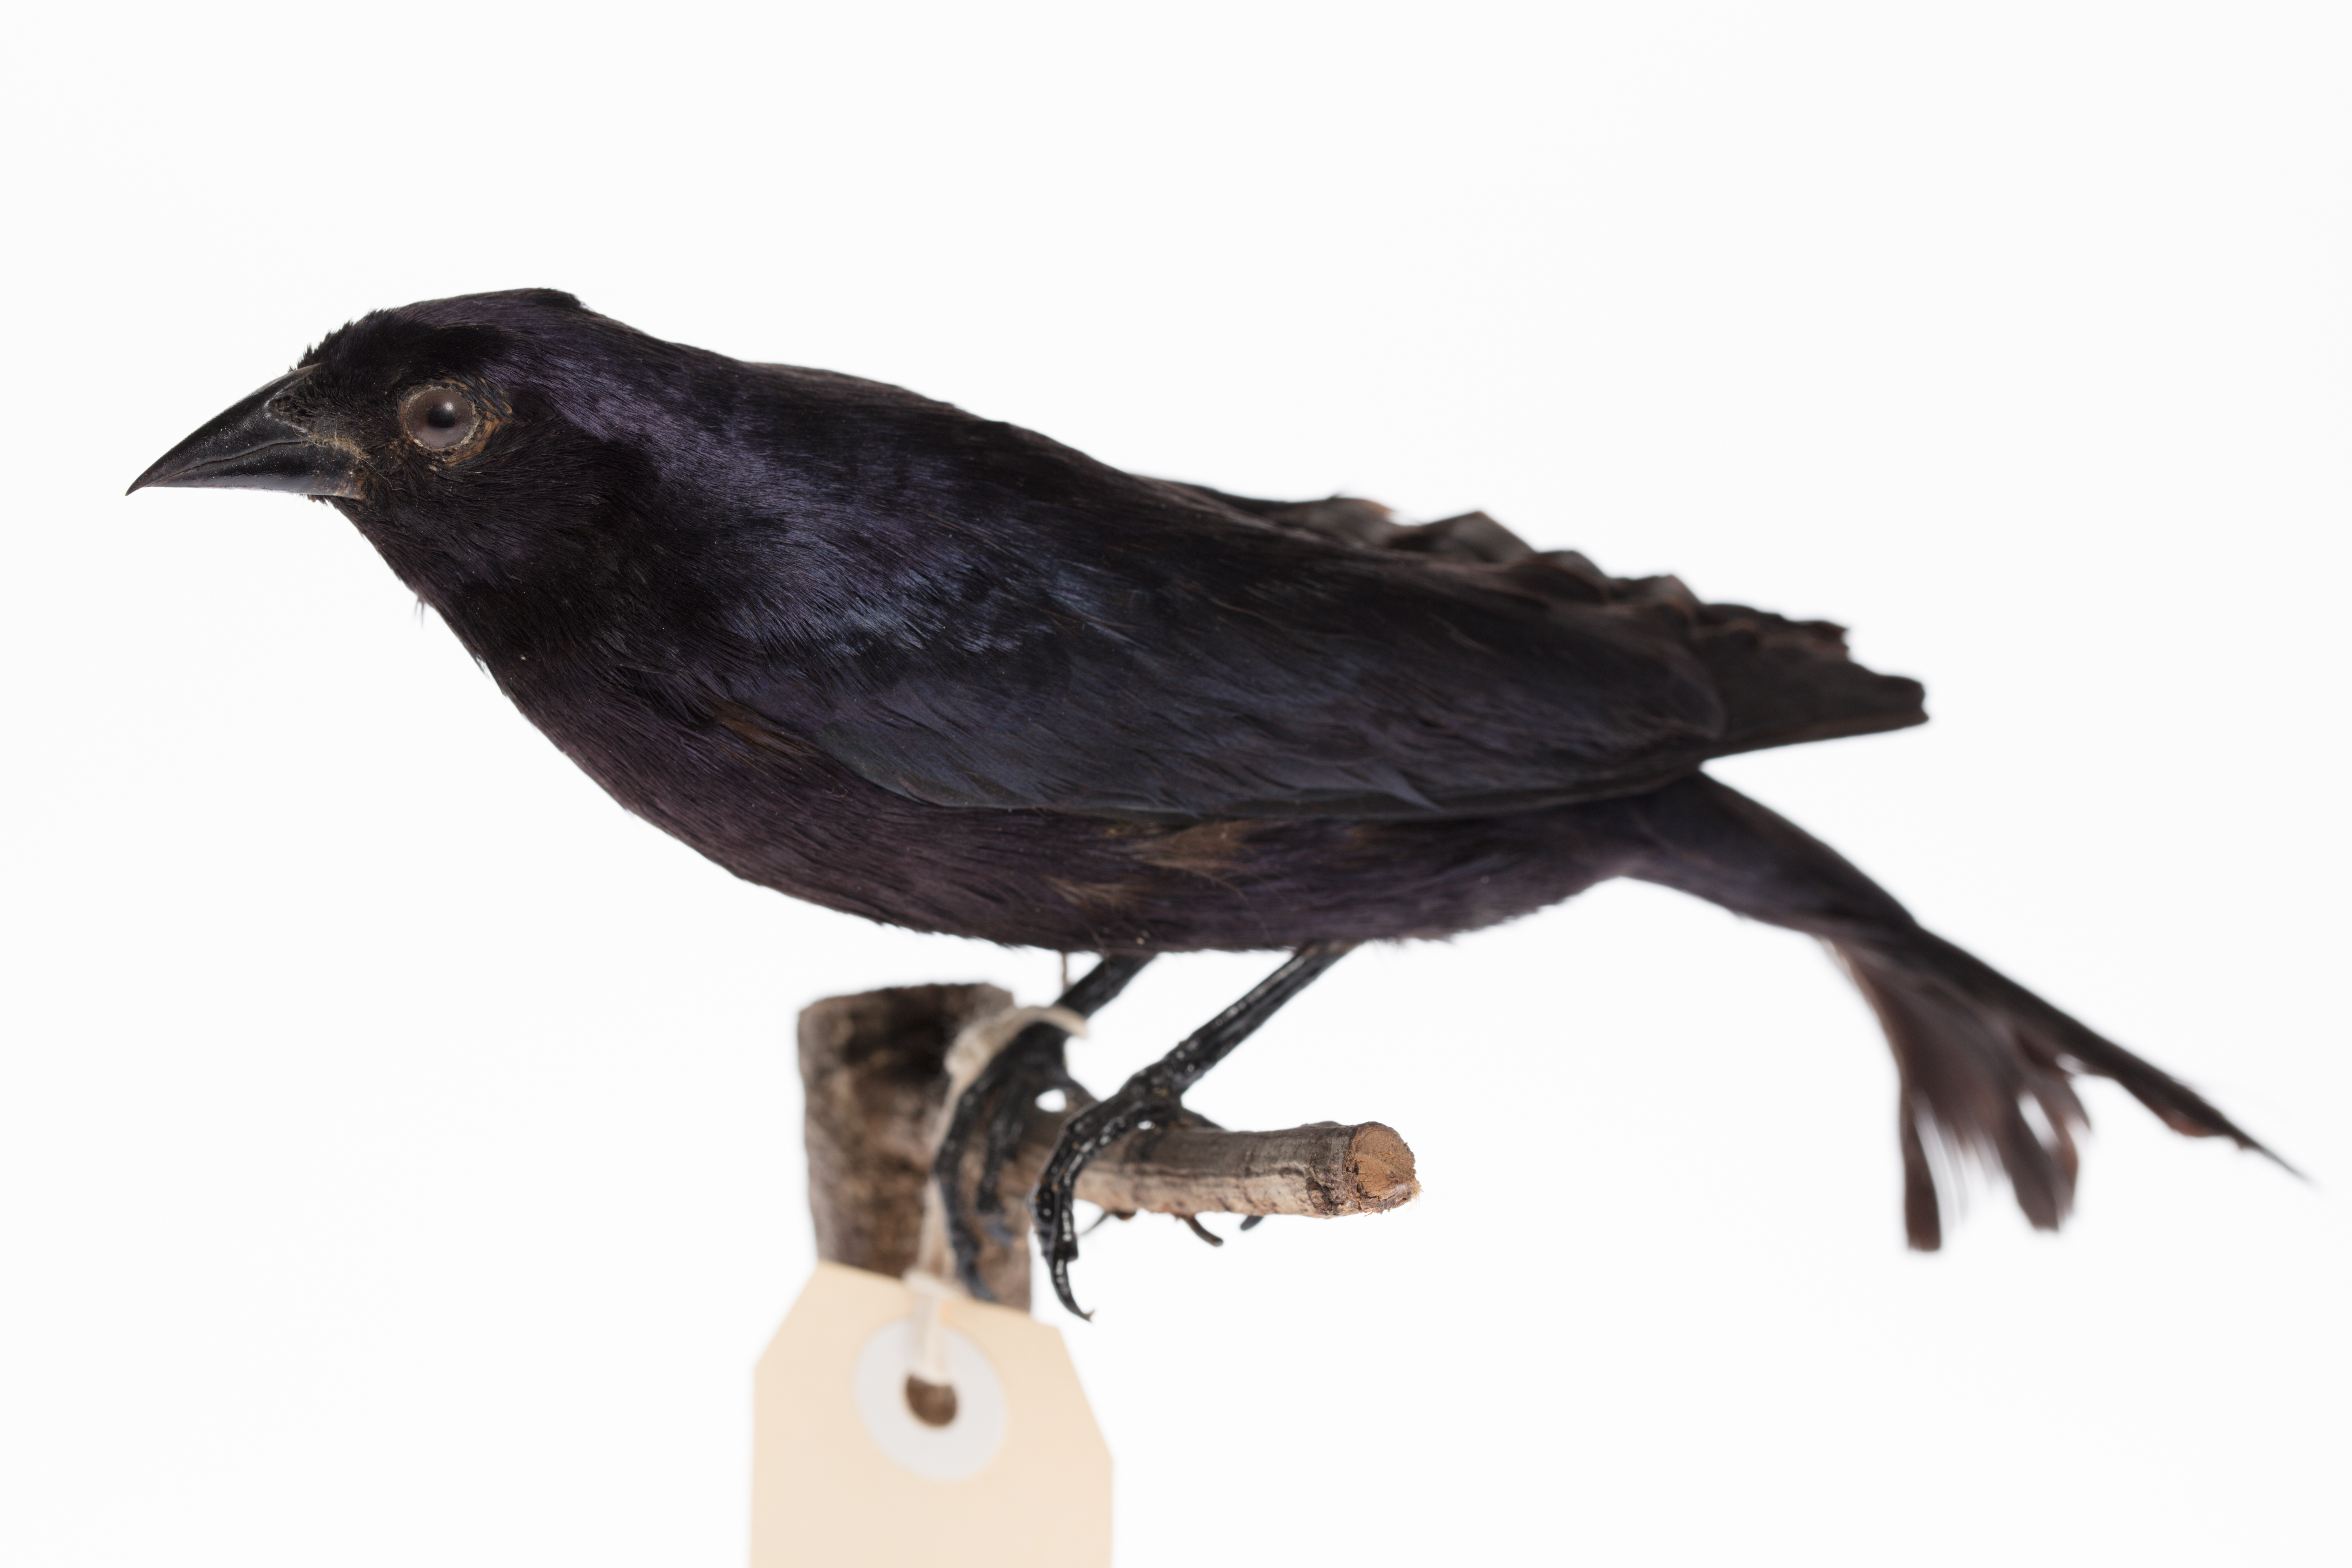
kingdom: Animalia
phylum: Chordata
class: Aves
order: Passeriformes
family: Icteridae
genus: Molothrus
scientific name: Molothrus bonariensis
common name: Shiny cowbird
